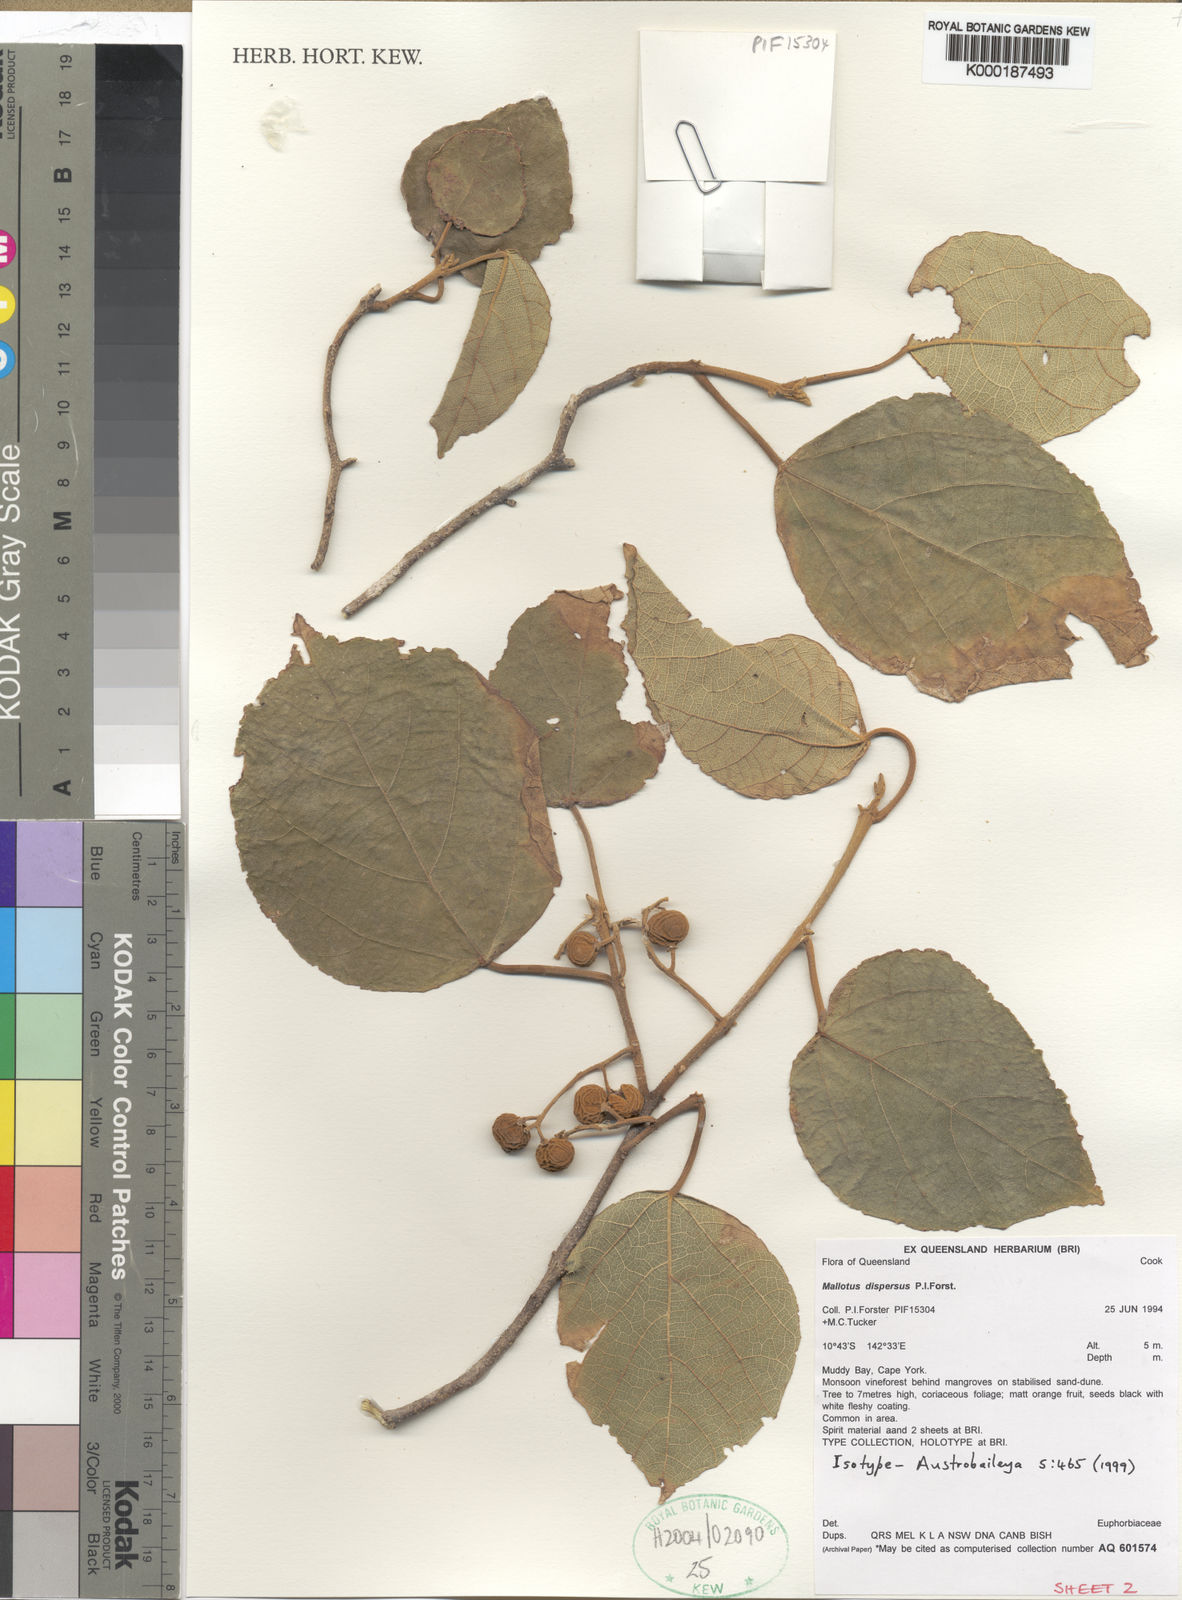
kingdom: Plantae
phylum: Tracheophyta
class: Magnoliopsida
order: Malpighiales
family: Euphorbiaceae
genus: Mallotus
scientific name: Mallotus dispersus
